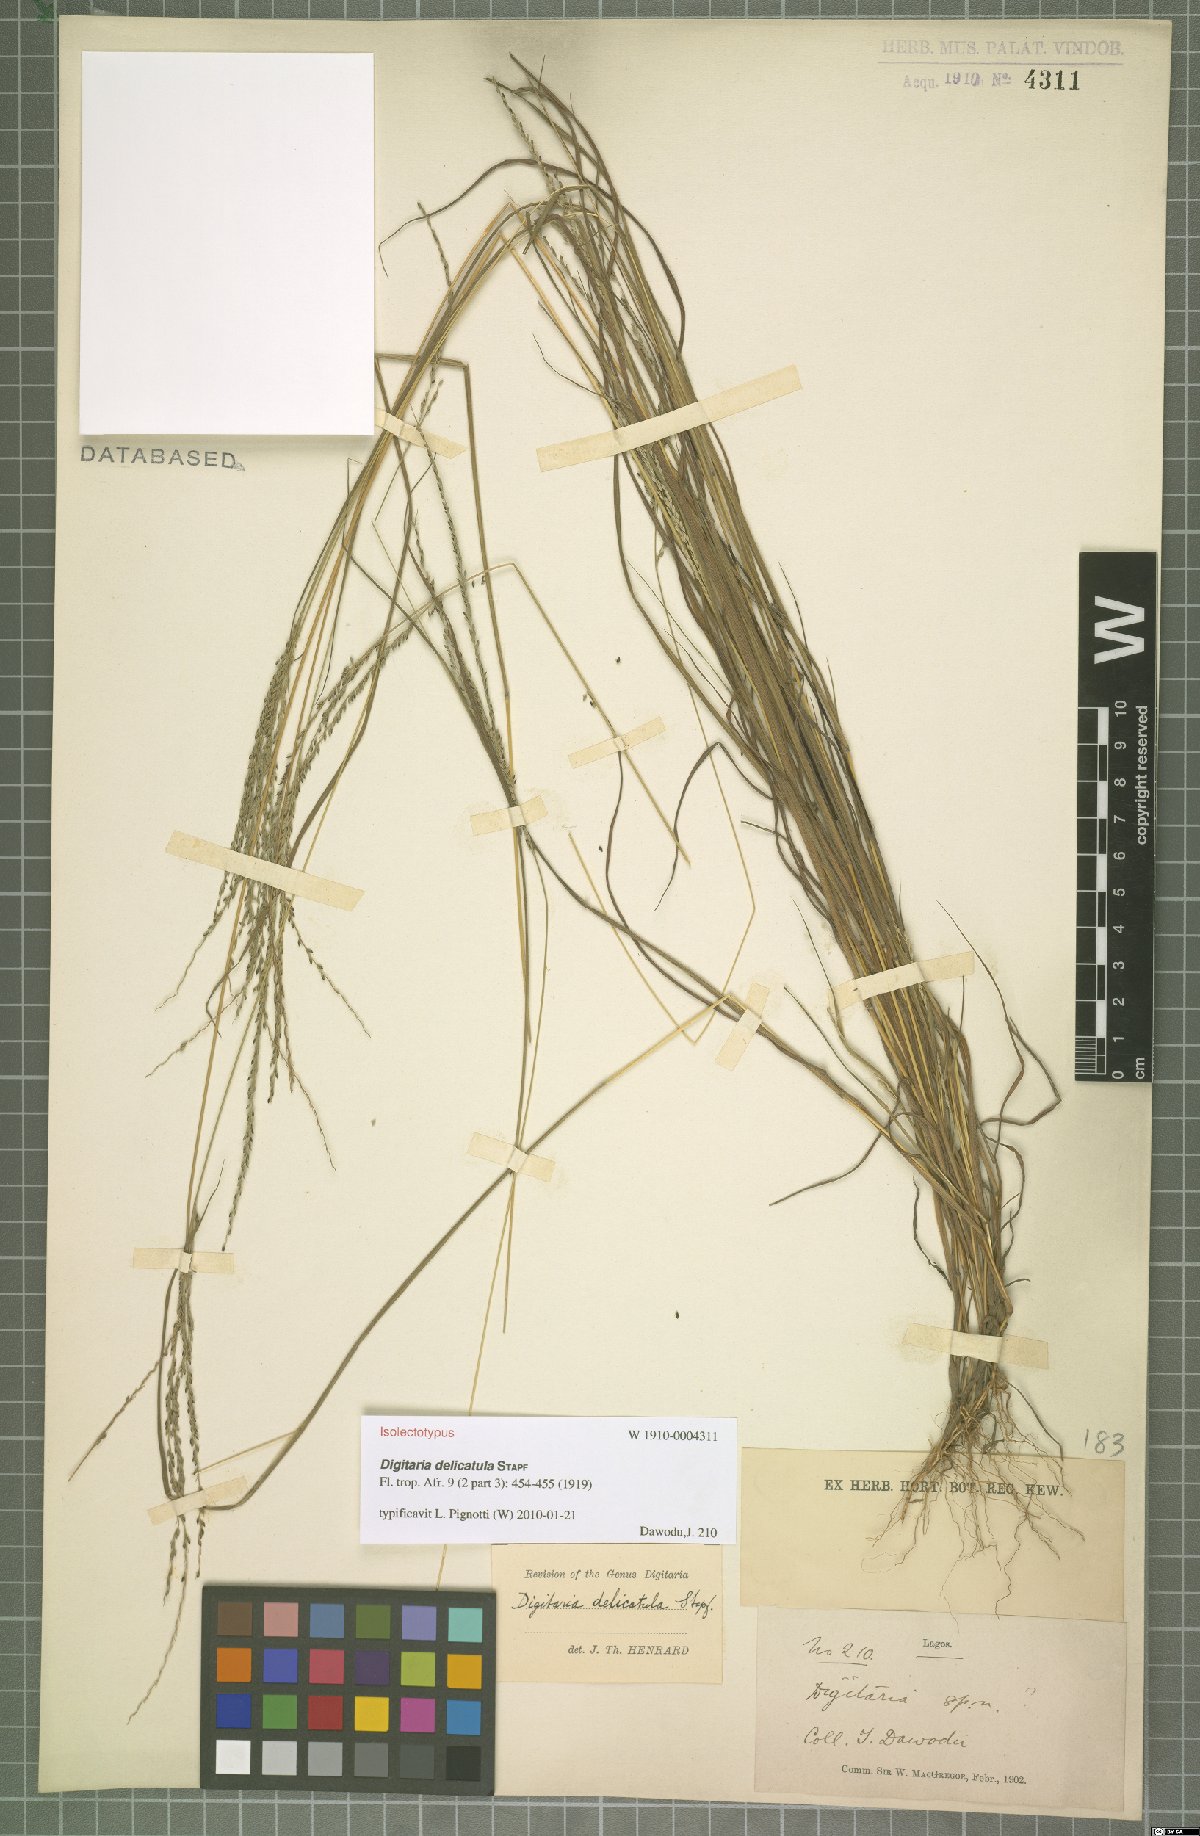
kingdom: Plantae
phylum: Tracheophyta
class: Liliopsida
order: Poales
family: Poaceae
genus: Digitaria
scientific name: Digitaria delicatula
